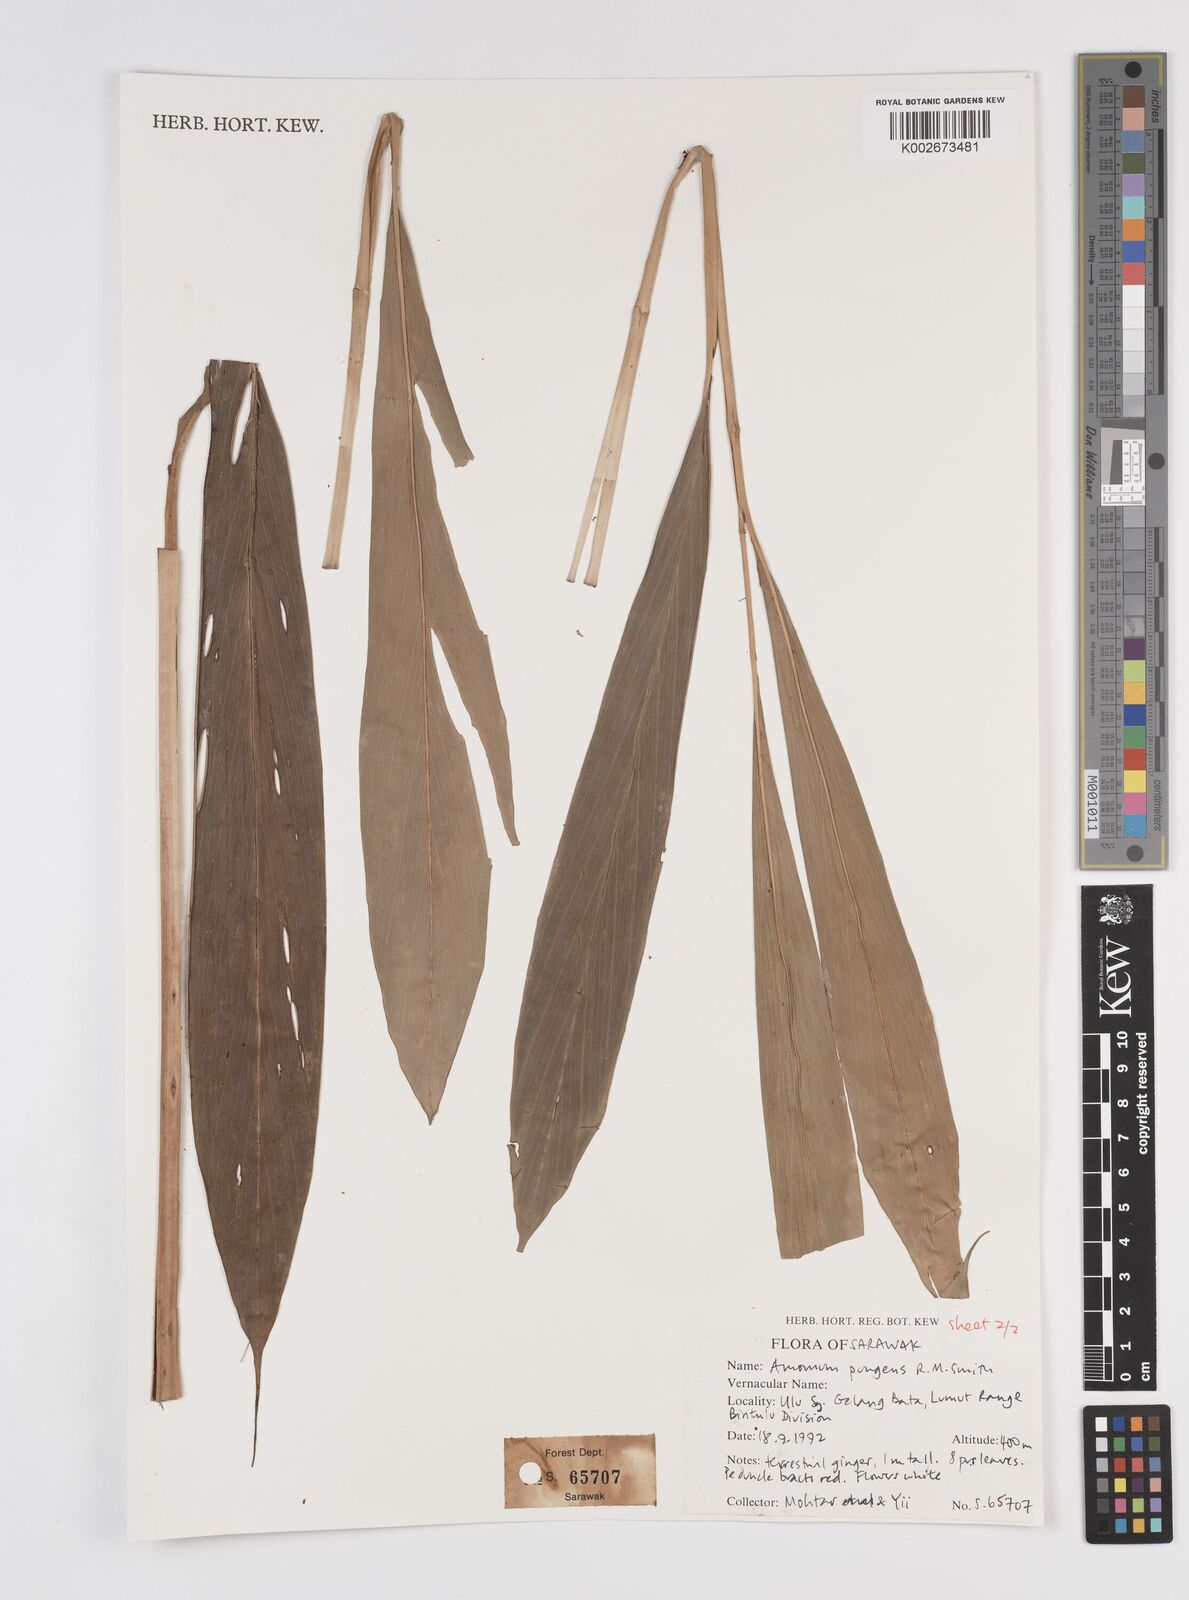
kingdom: Plantae
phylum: Tracheophyta
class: Liliopsida
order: Zingiberales
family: Zingiberaceae
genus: Epiamomum
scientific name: Epiamomum pungens
